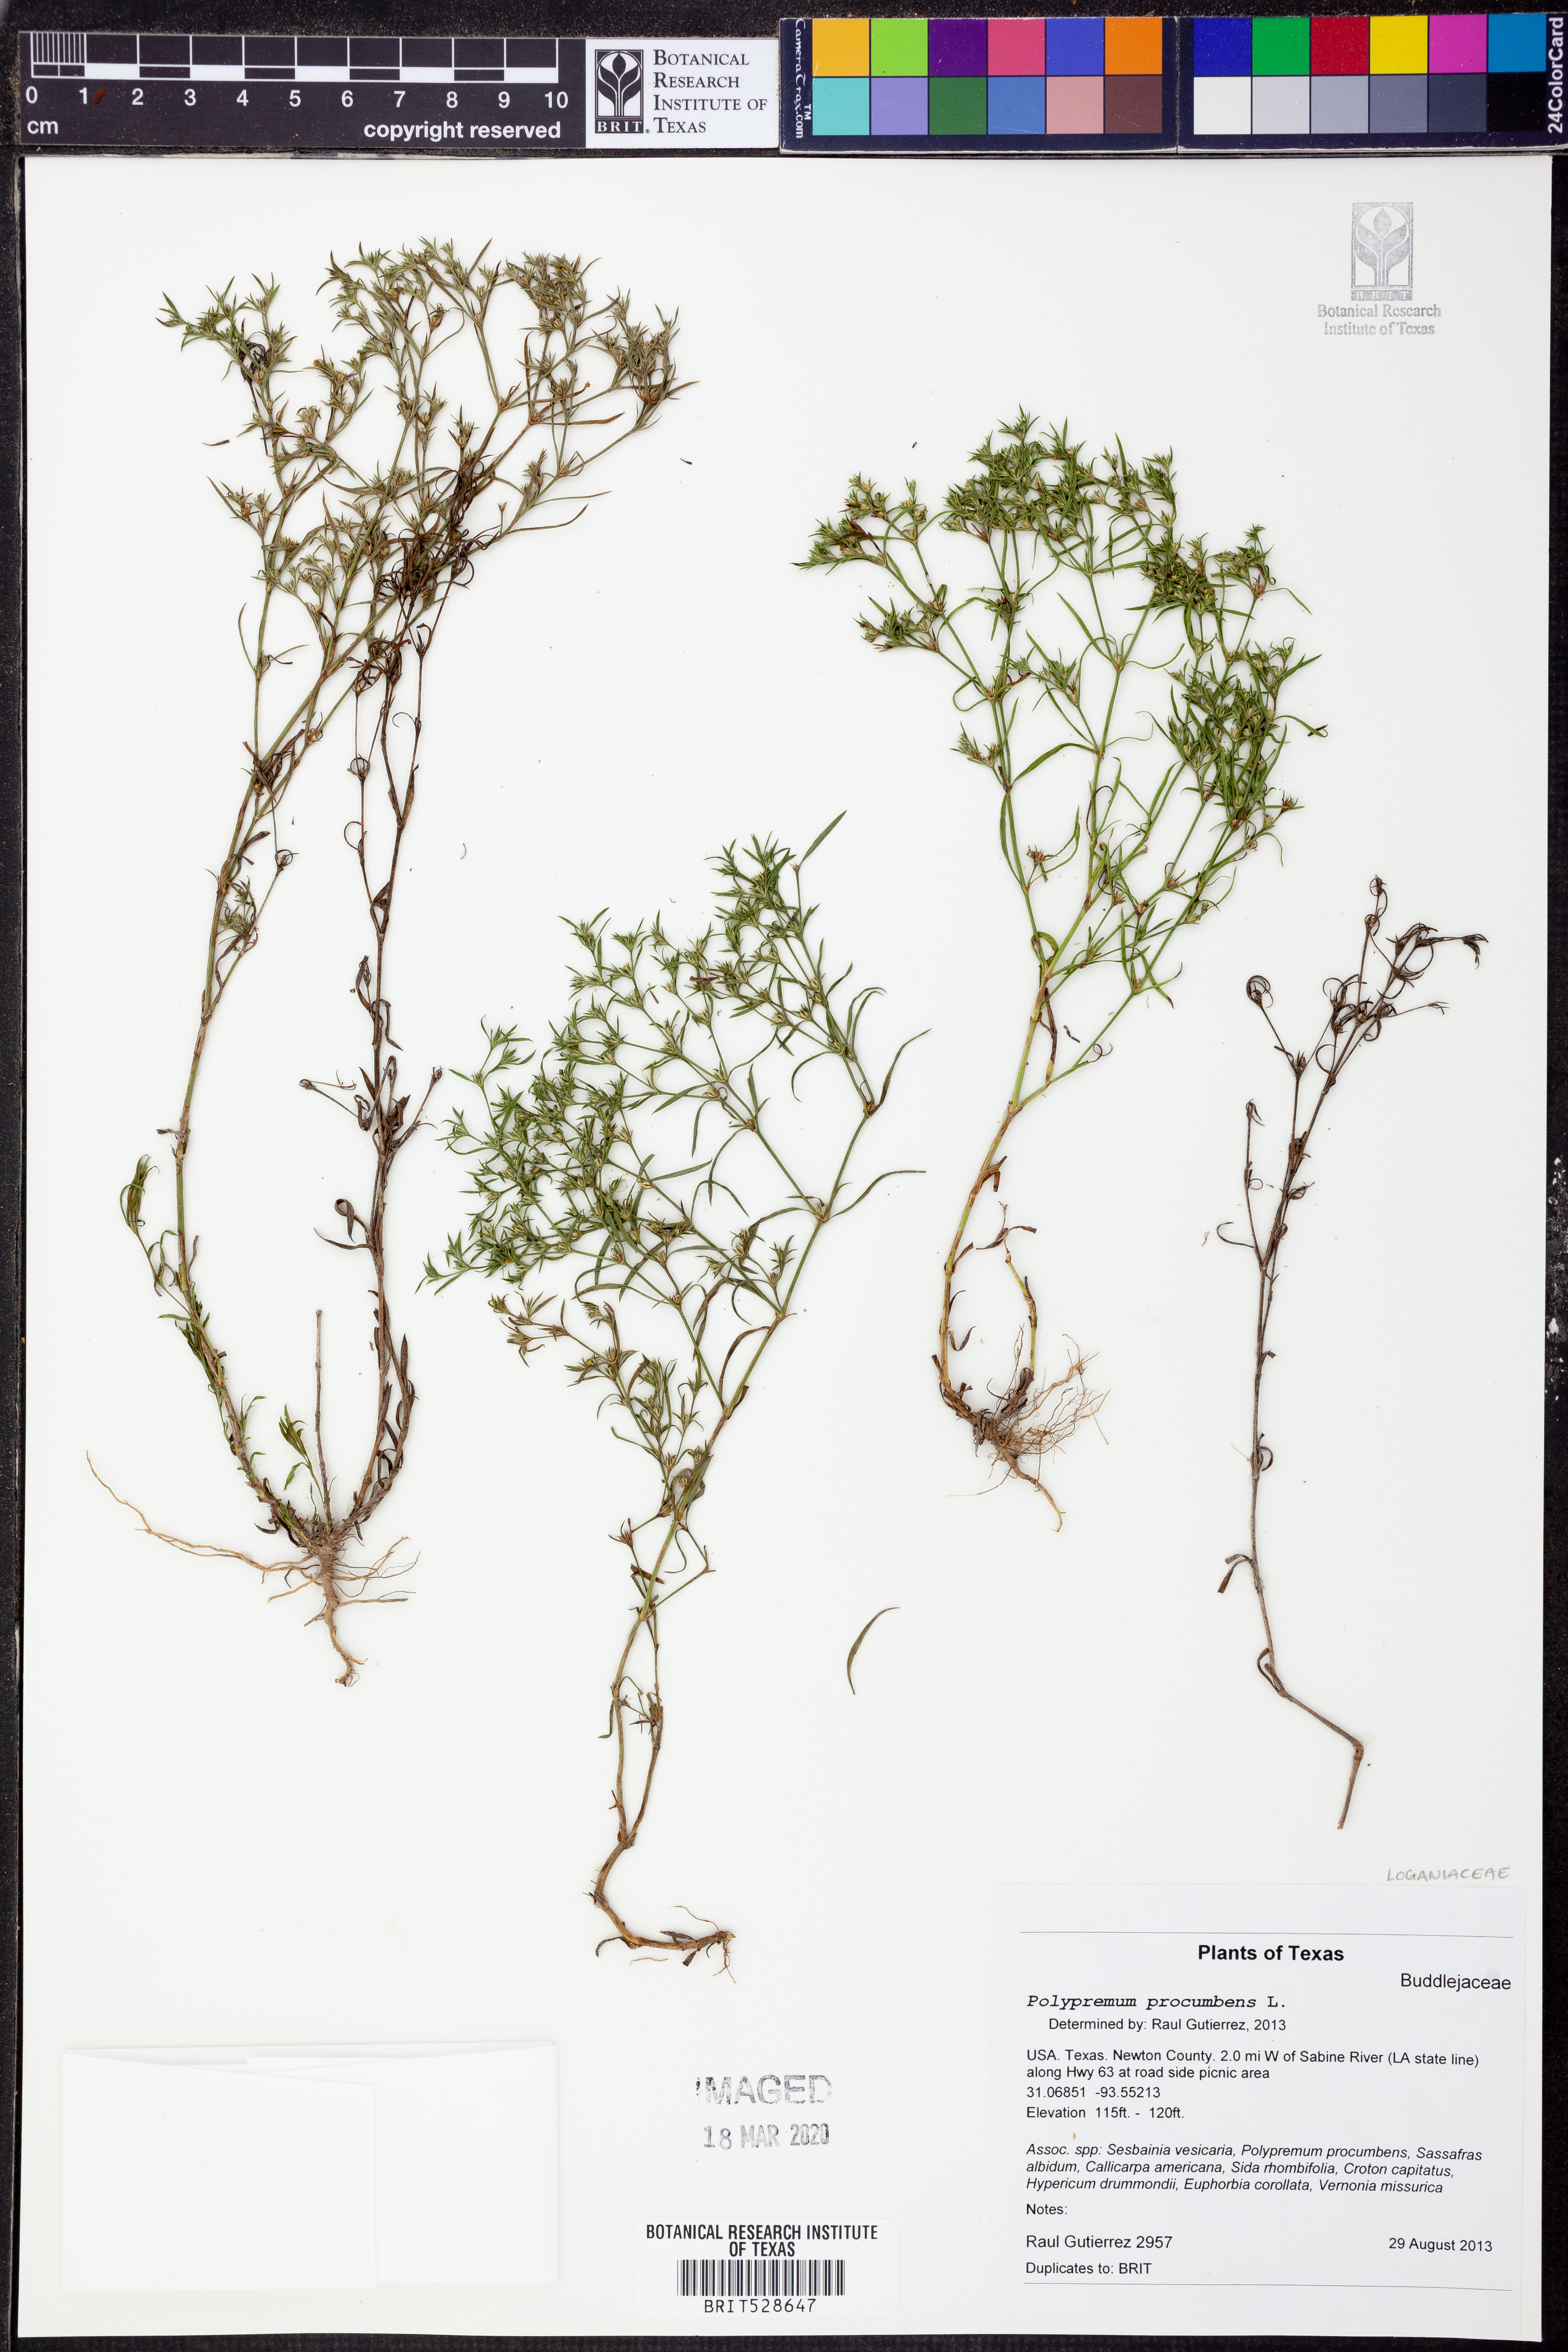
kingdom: Plantae
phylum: Tracheophyta
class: Magnoliopsida
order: Lamiales
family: Tetrachondraceae
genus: Polypremum
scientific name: Polypremum procumbens
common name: Juniper-leaf
